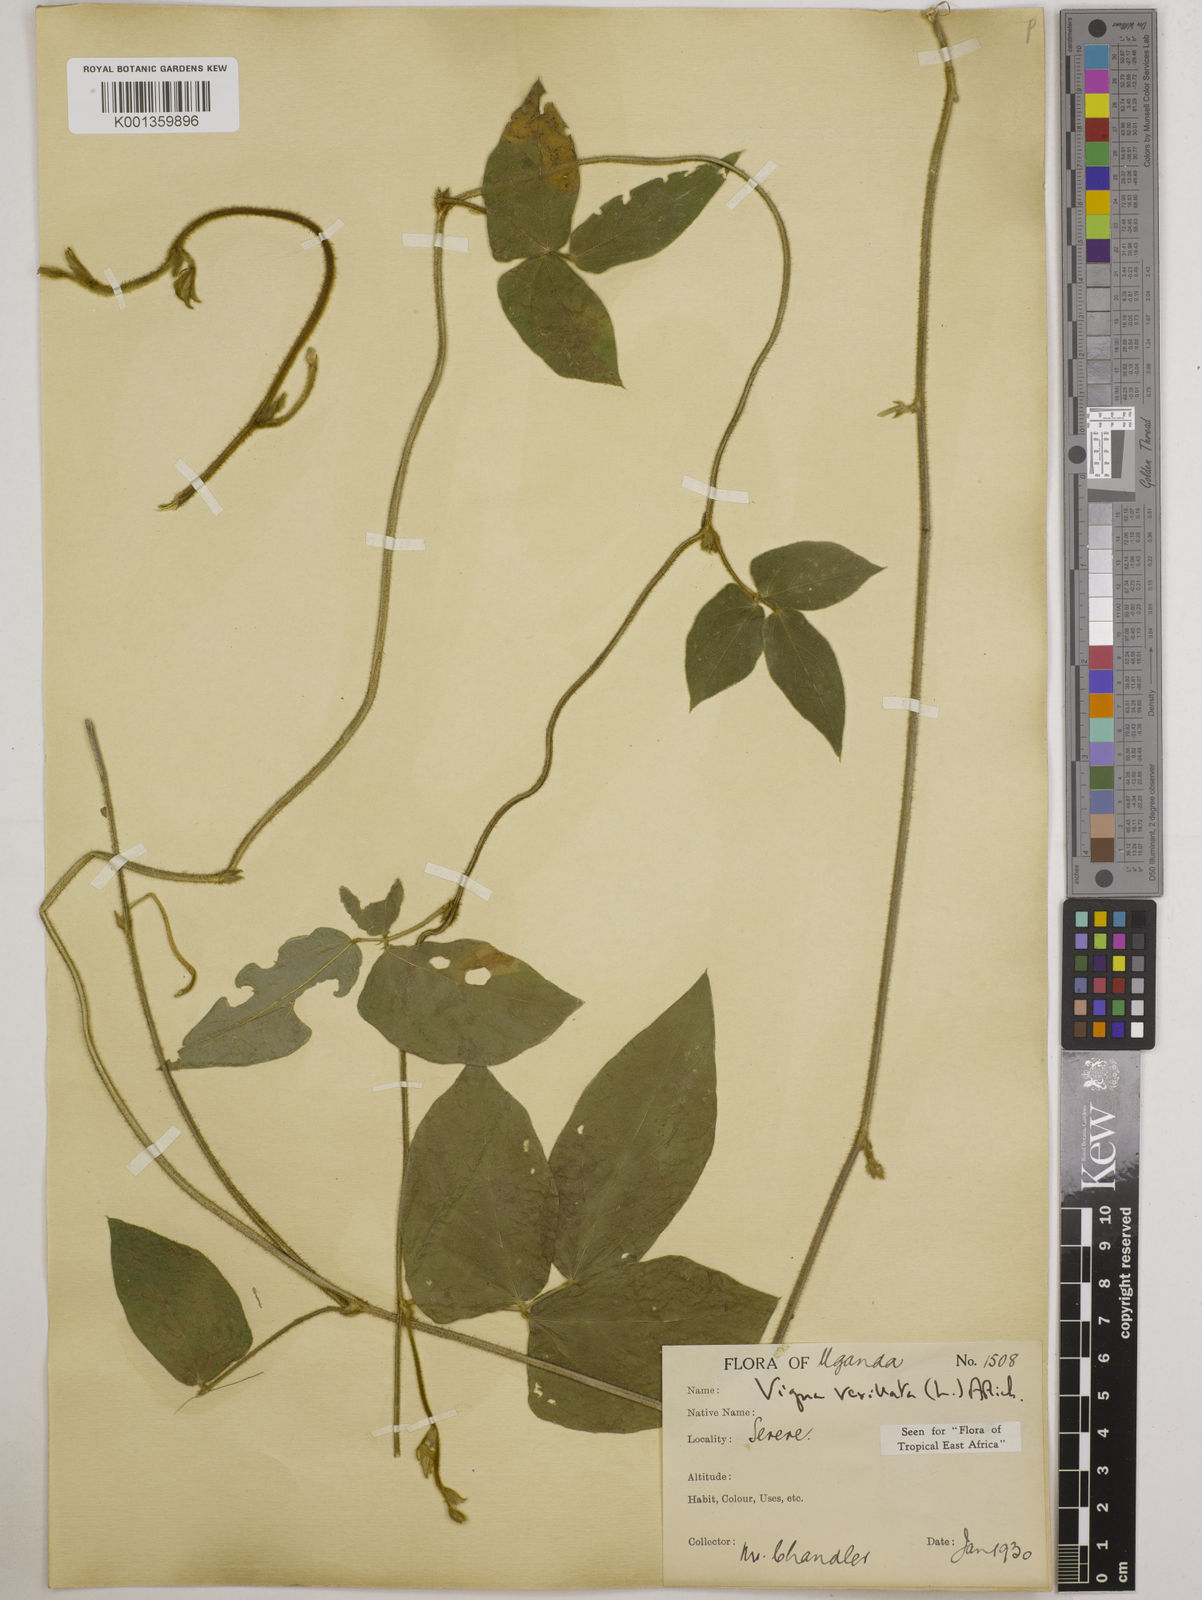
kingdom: Plantae
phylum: Tracheophyta
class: Magnoliopsida
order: Fabales
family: Fabaceae
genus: Vigna
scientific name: Vigna vexillata
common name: Zombi pea
